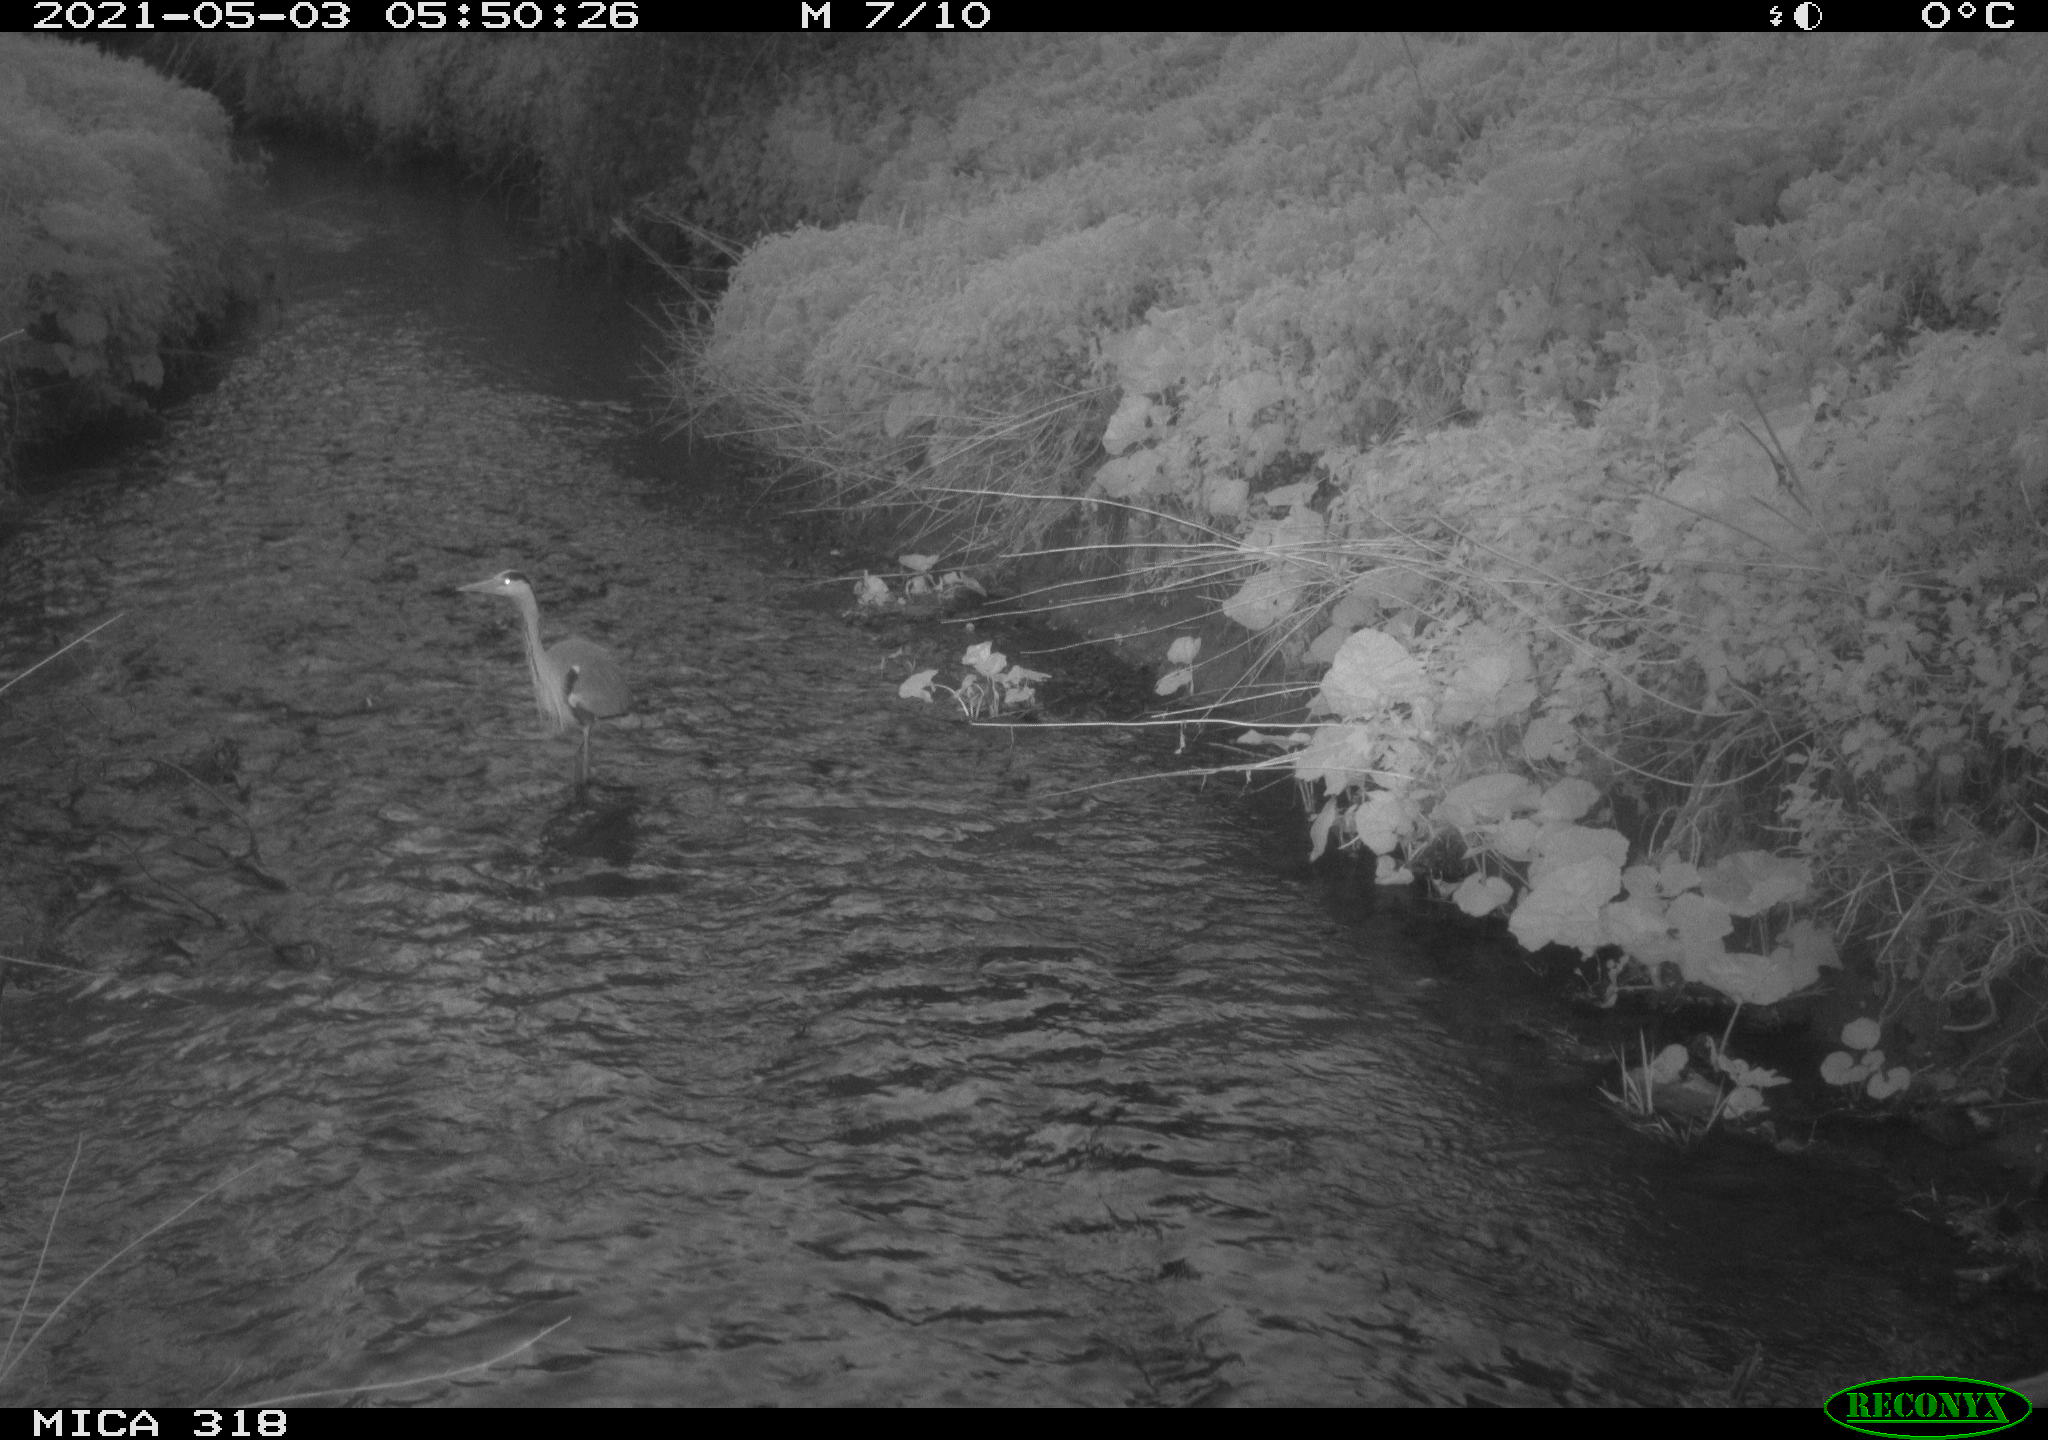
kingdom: Animalia
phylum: Chordata
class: Aves
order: Pelecaniformes
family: Ardeidae
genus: Ardea
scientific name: Ardea cinerea
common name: Grey heron
